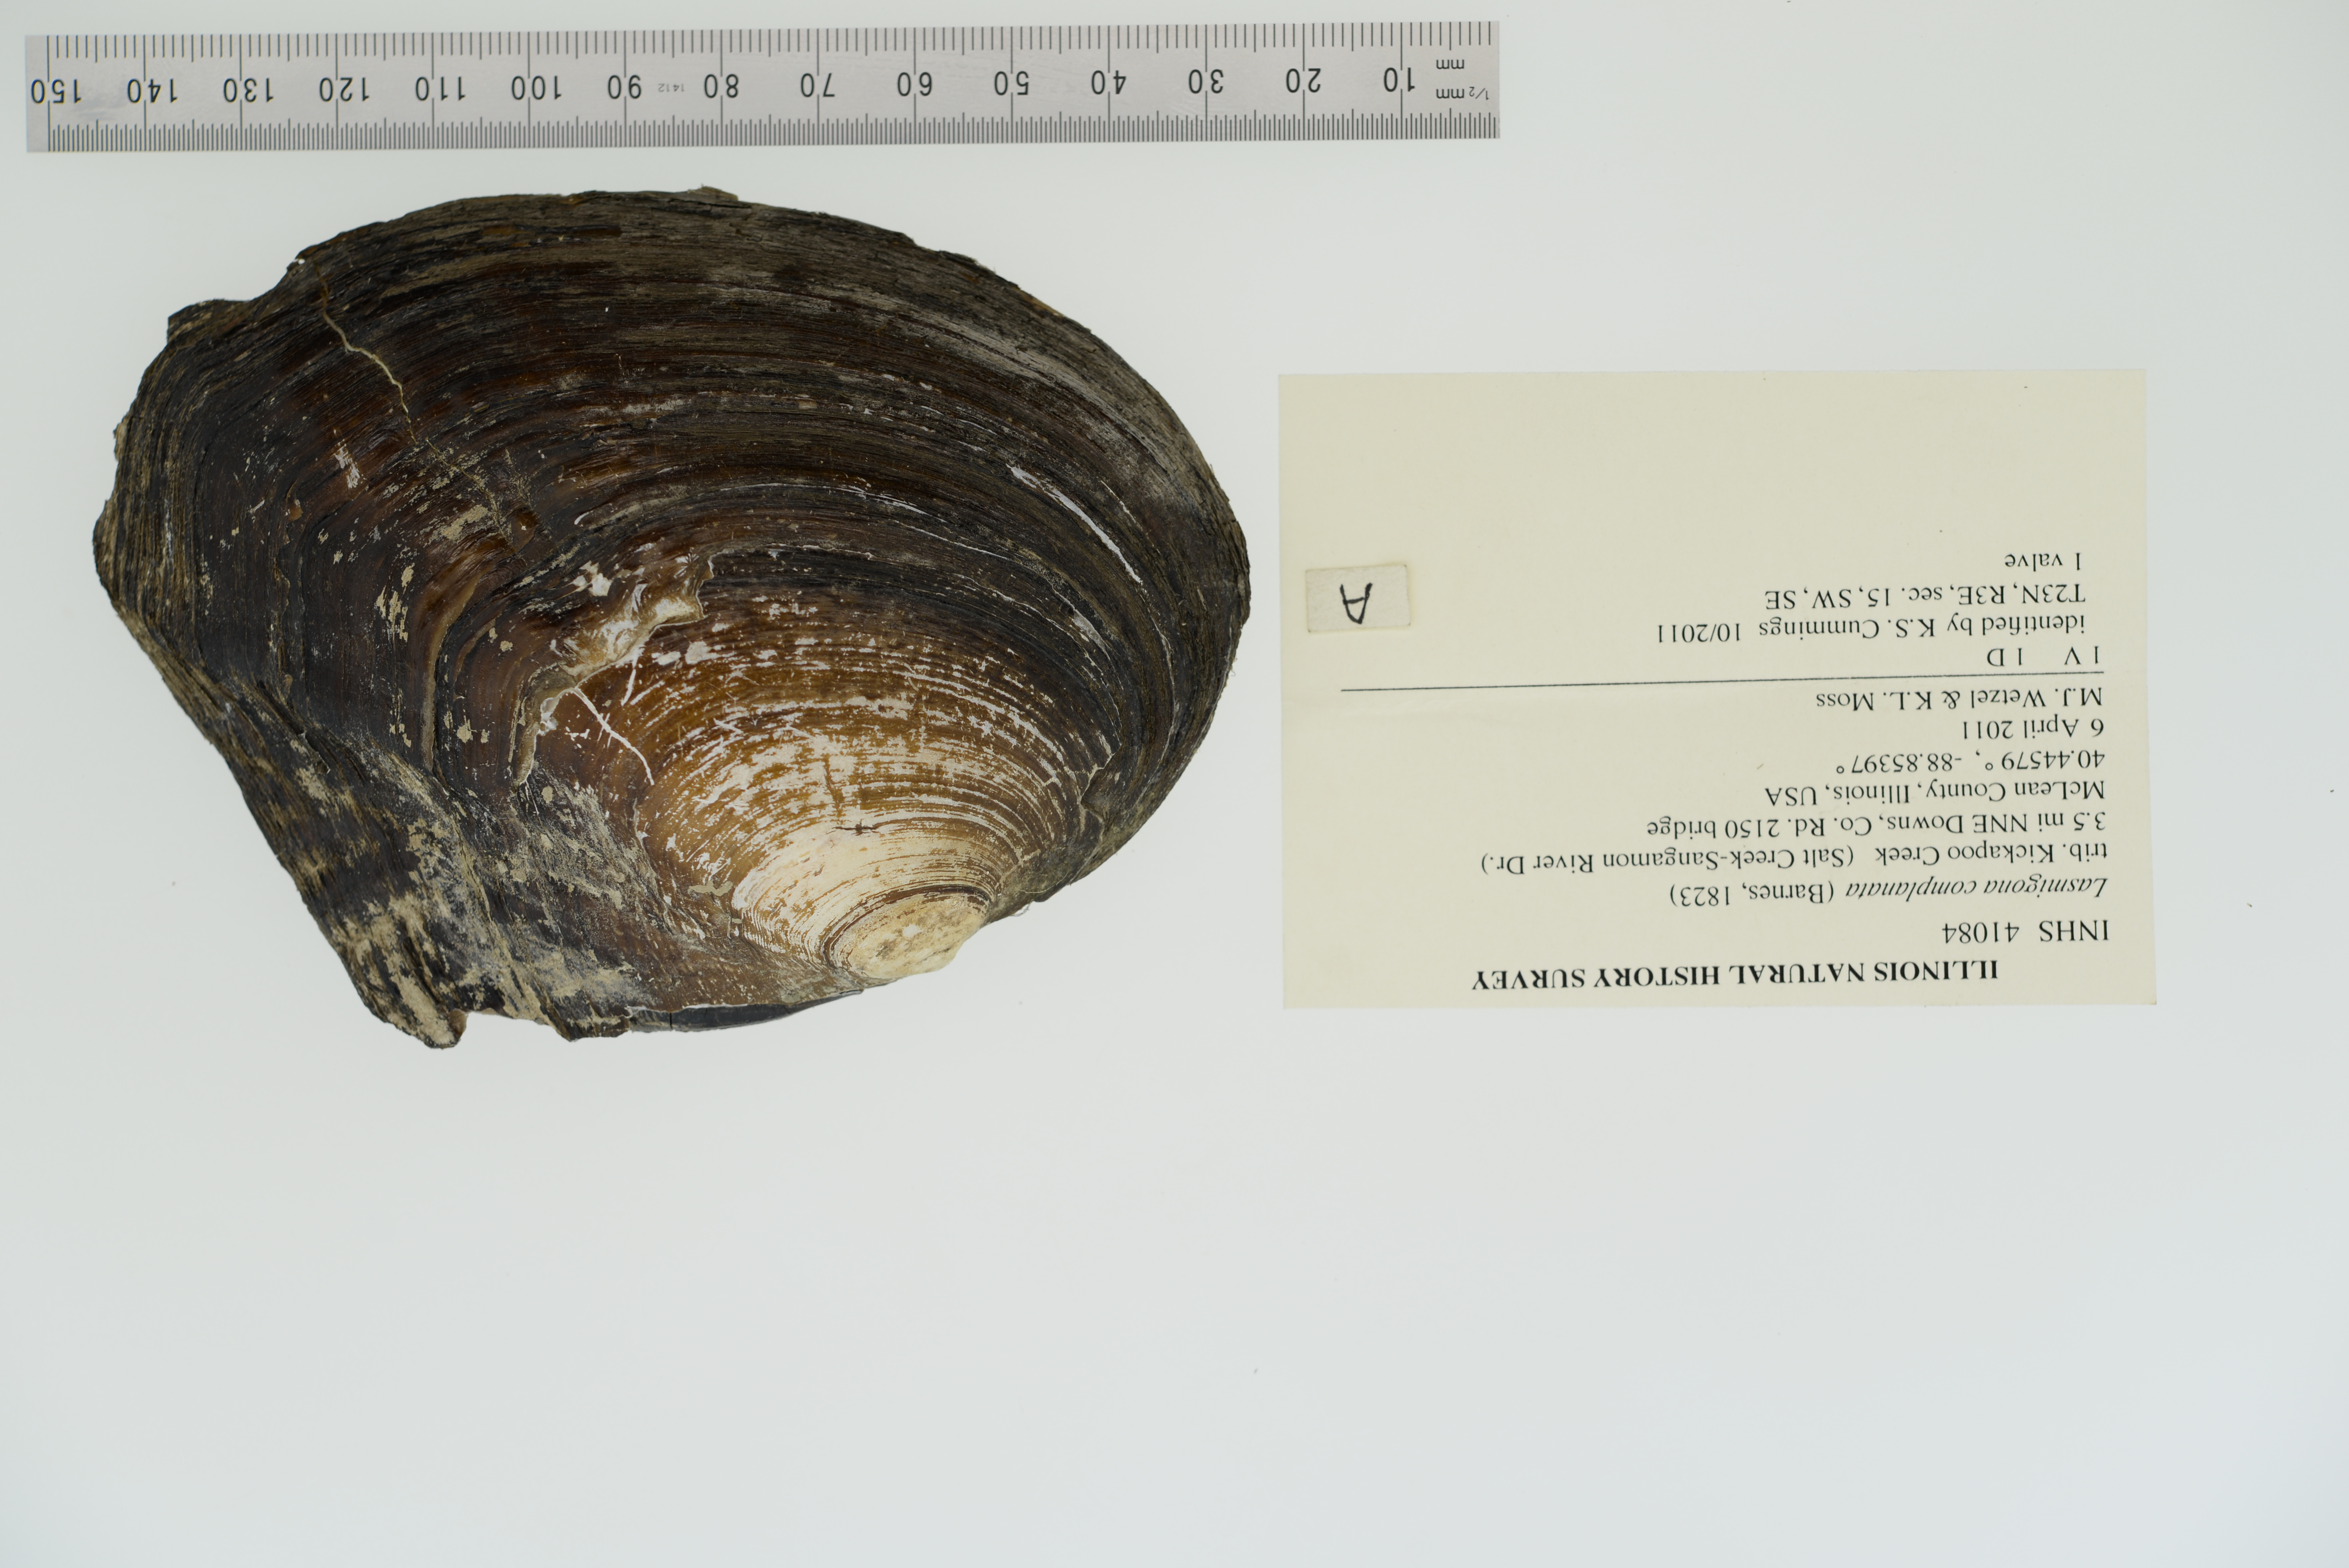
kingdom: Animalia
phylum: Mollusca
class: Bivalvia
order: Unionida
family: Unionidae
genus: Lasmigona
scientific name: Lasmigona complanata
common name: White heelsplitter
